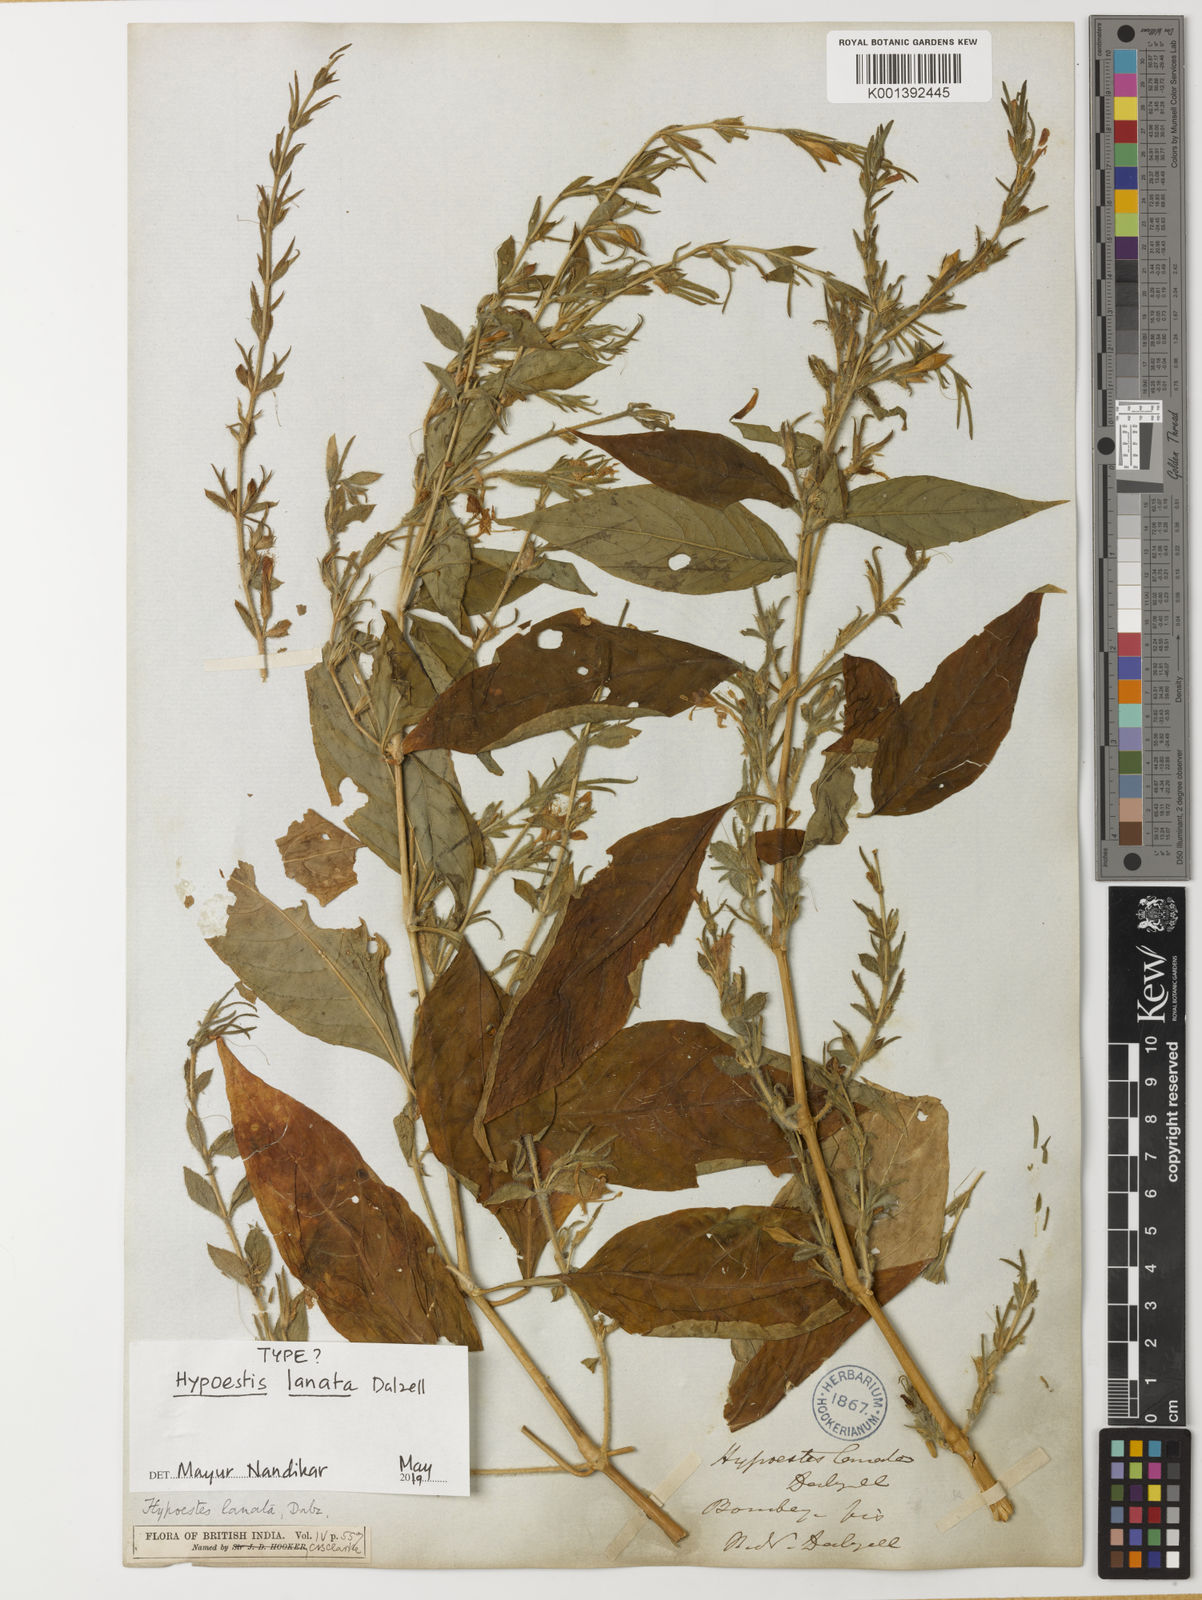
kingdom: Plantae
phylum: Tracheophyta
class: Magnoliopsida
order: Lamiales
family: Acanthaceae
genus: Hypoestes
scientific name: Hypoestes lanata
